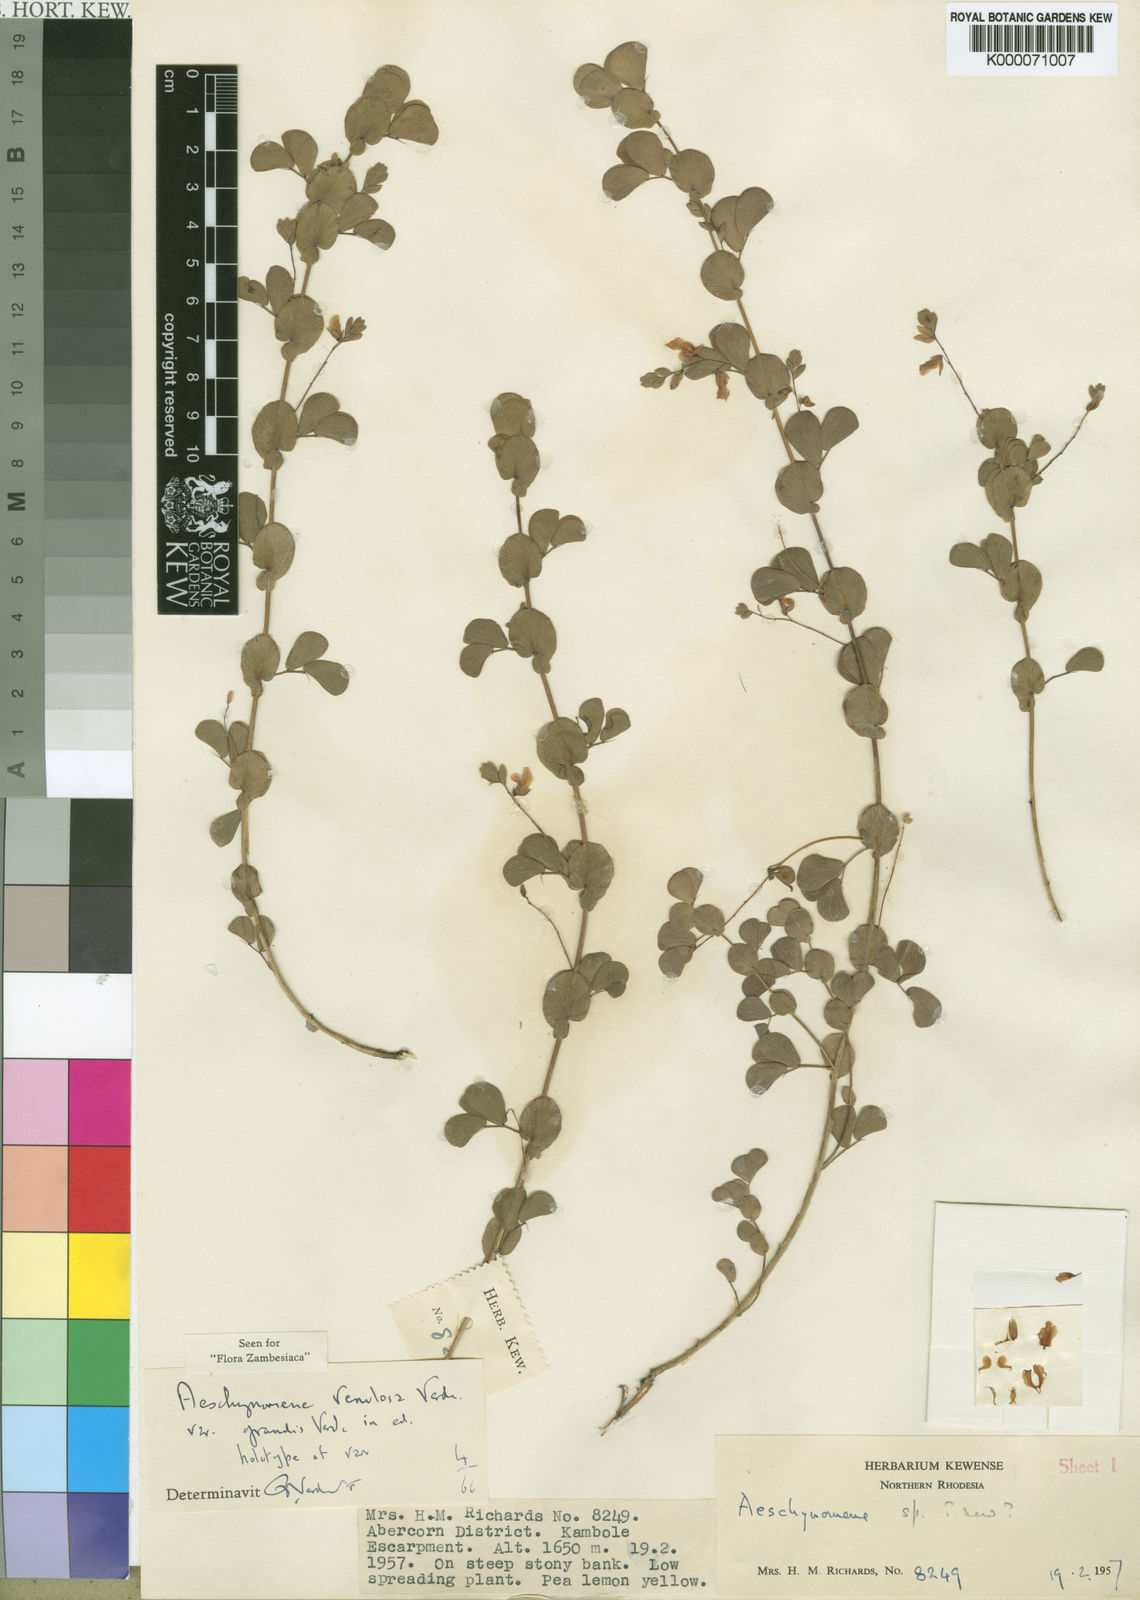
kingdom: Plantae
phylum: Tracheophyta
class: Magnoliopsida
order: Fabales
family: Fabaceae
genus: Aeschynomene
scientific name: Aeschynomene venulosa
